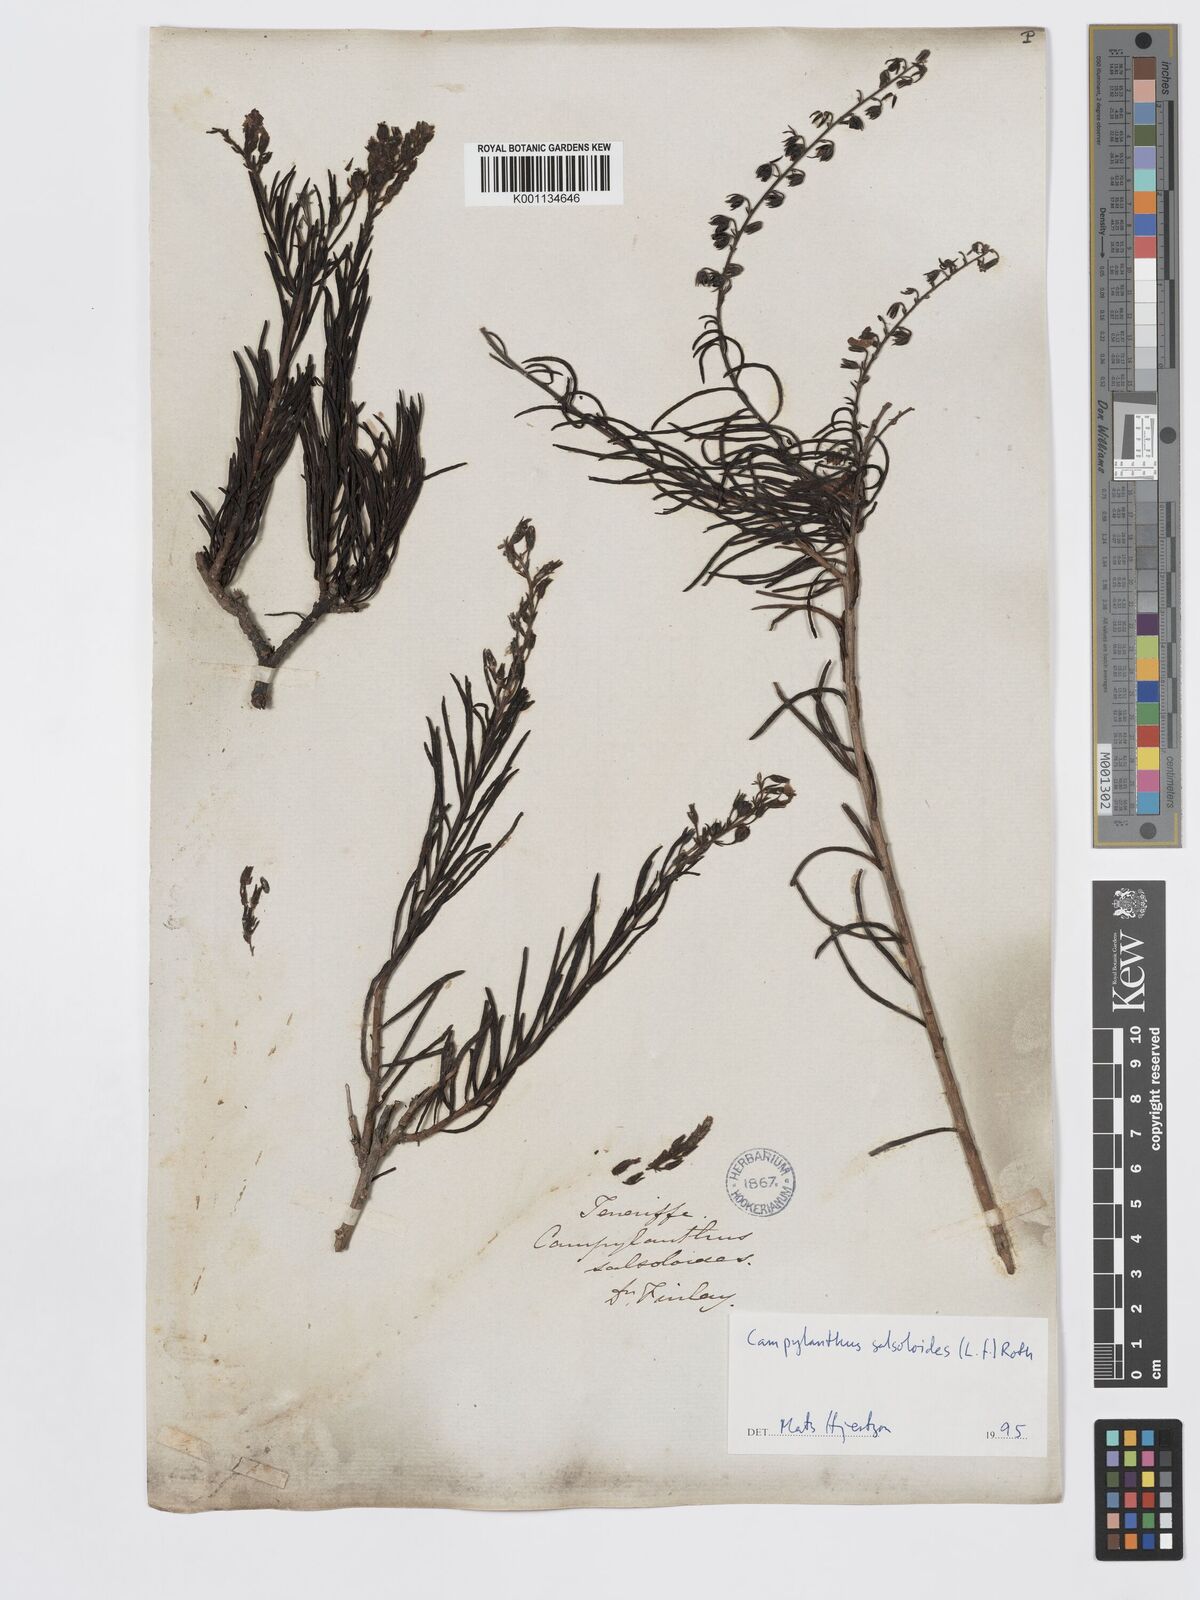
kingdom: Plantae
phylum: Tracheophyta
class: Magnoliopsida
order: Lamiales
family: Plantaginaceae
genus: Campylanthus
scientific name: Campylanthus
